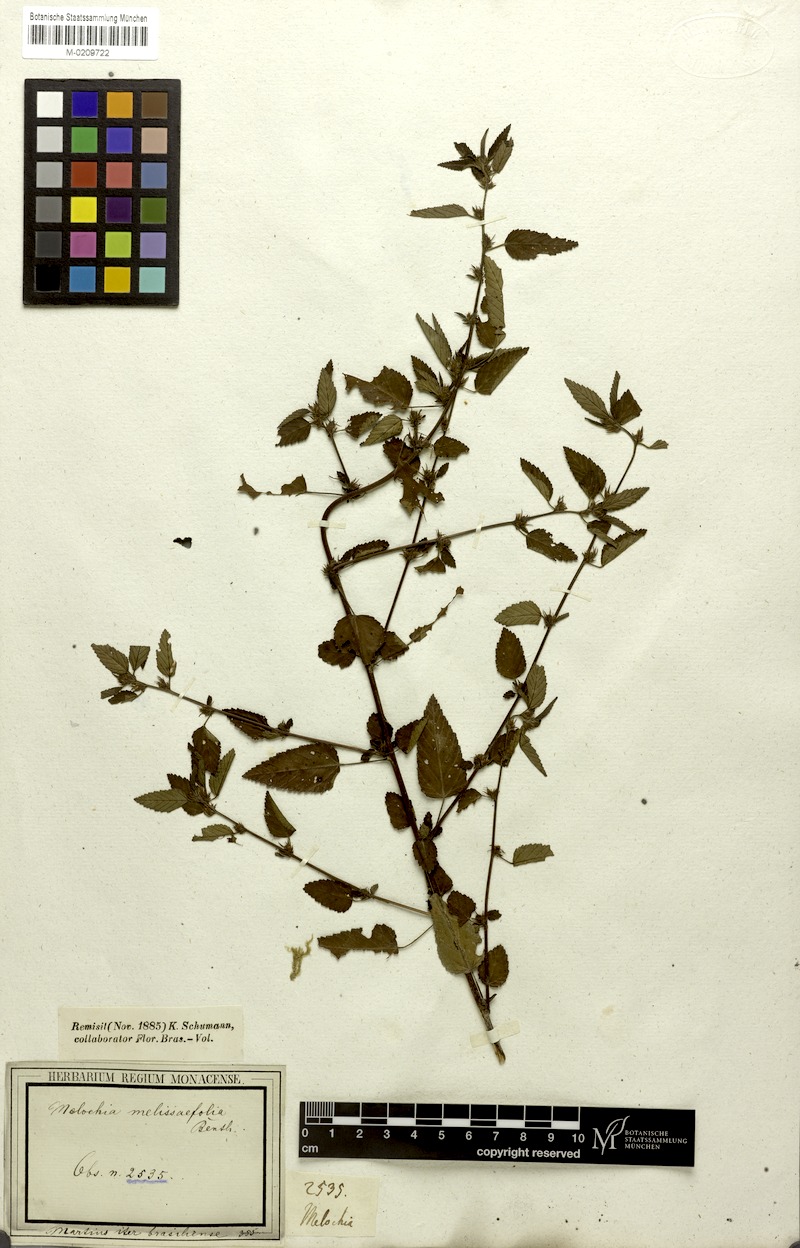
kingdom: Plantae
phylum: Tracheophyta
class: Magnoliopsida
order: Malvales
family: Malvaceae
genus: Melochia
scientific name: Melochia melissifolia
